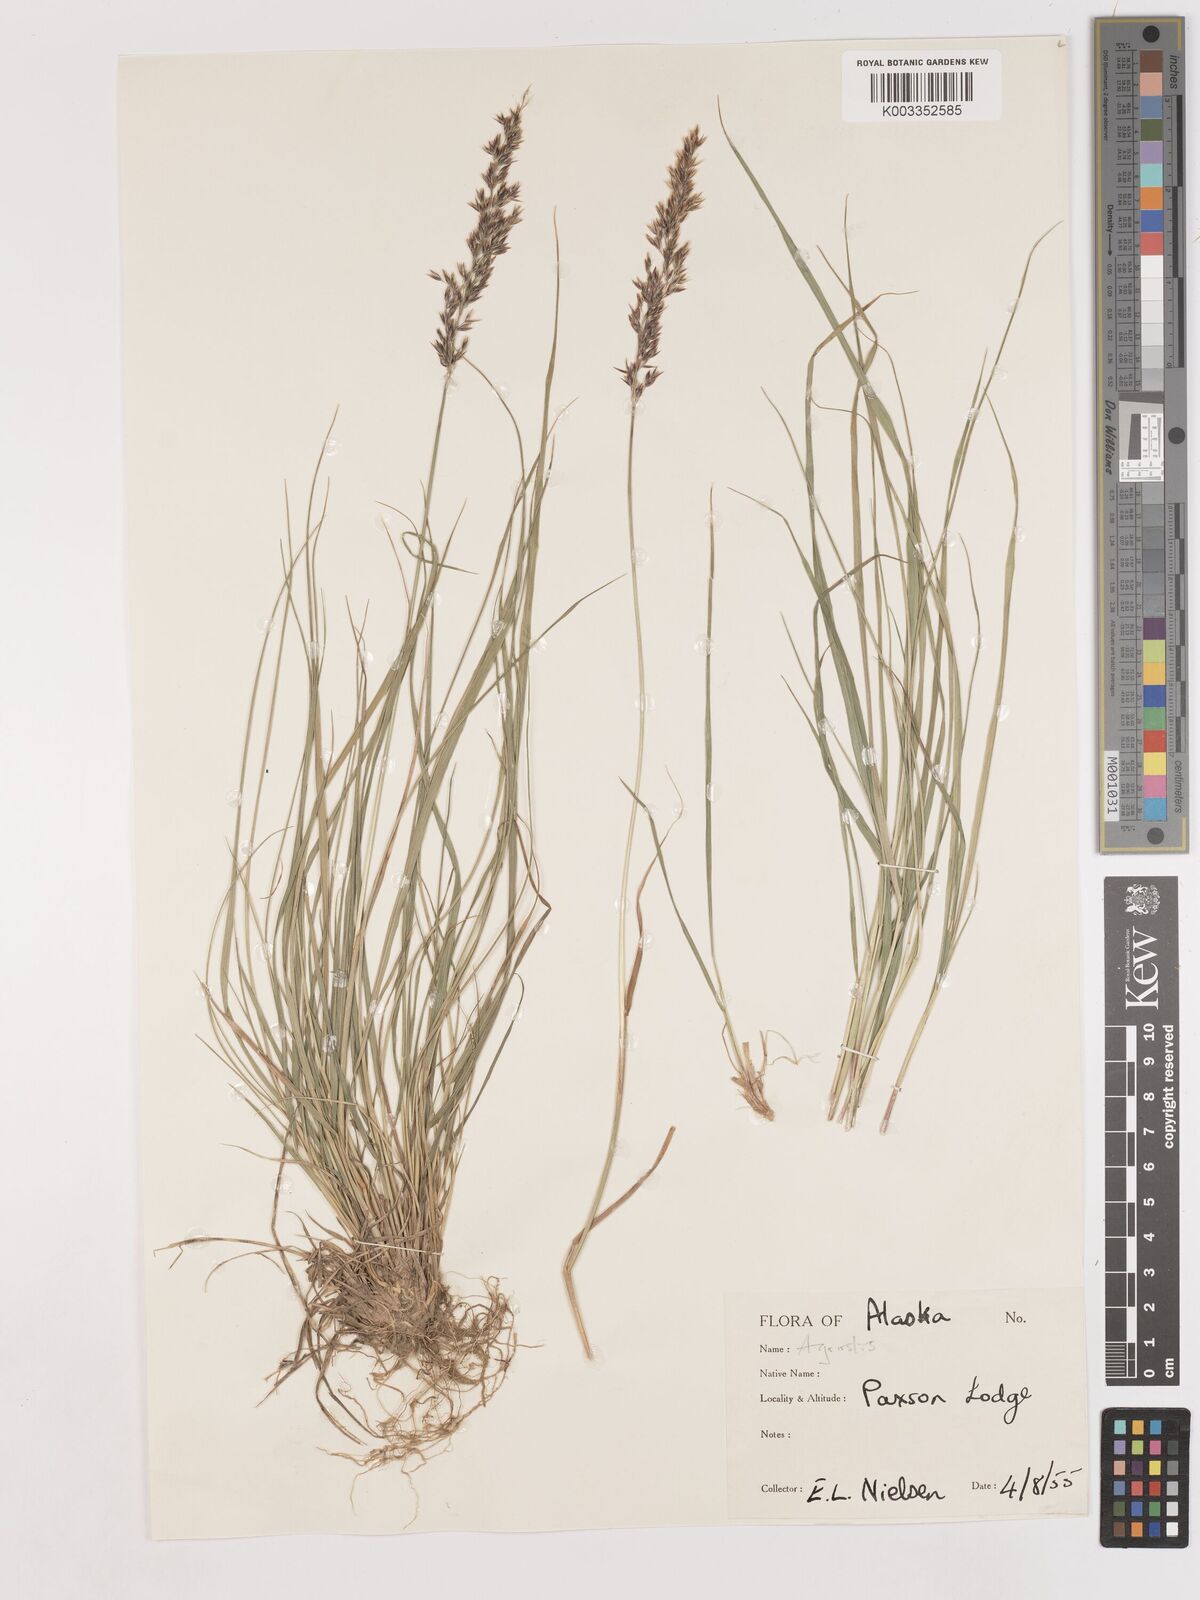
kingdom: Plantae
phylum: Tracheophyta
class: Liliopsida
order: Poales
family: Poaceae
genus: Calamagrostis
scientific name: Calamagrostis canadensis
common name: Canada bluejoint
